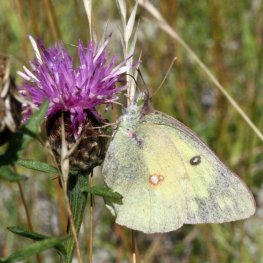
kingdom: Animalia
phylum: Arthropoda
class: Insecta
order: Lepidoptera
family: Pieridae
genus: Colias
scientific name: Colias philodice
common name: Clouded Sulphur
